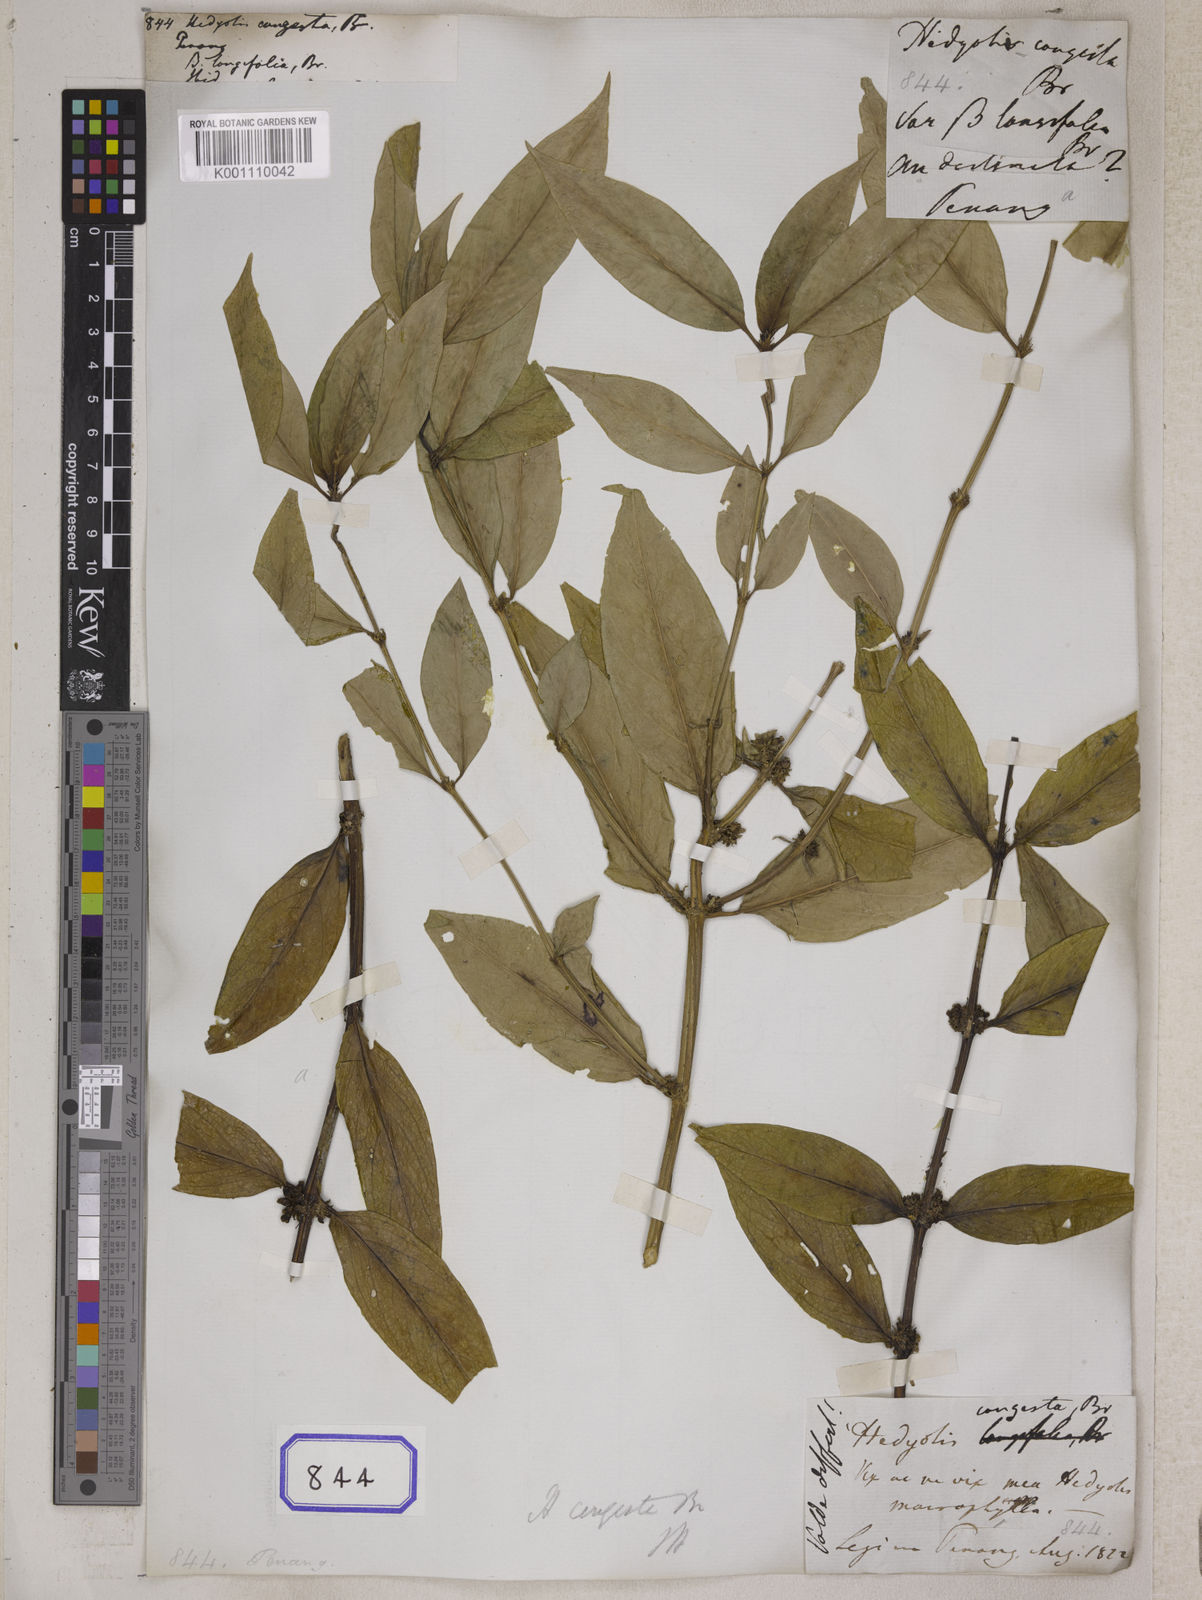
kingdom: Plantae
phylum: Tracheophyta
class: Magnoliopsida
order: Gentianales
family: Rubiaceae
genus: Hedyotis
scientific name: Hedyotis
